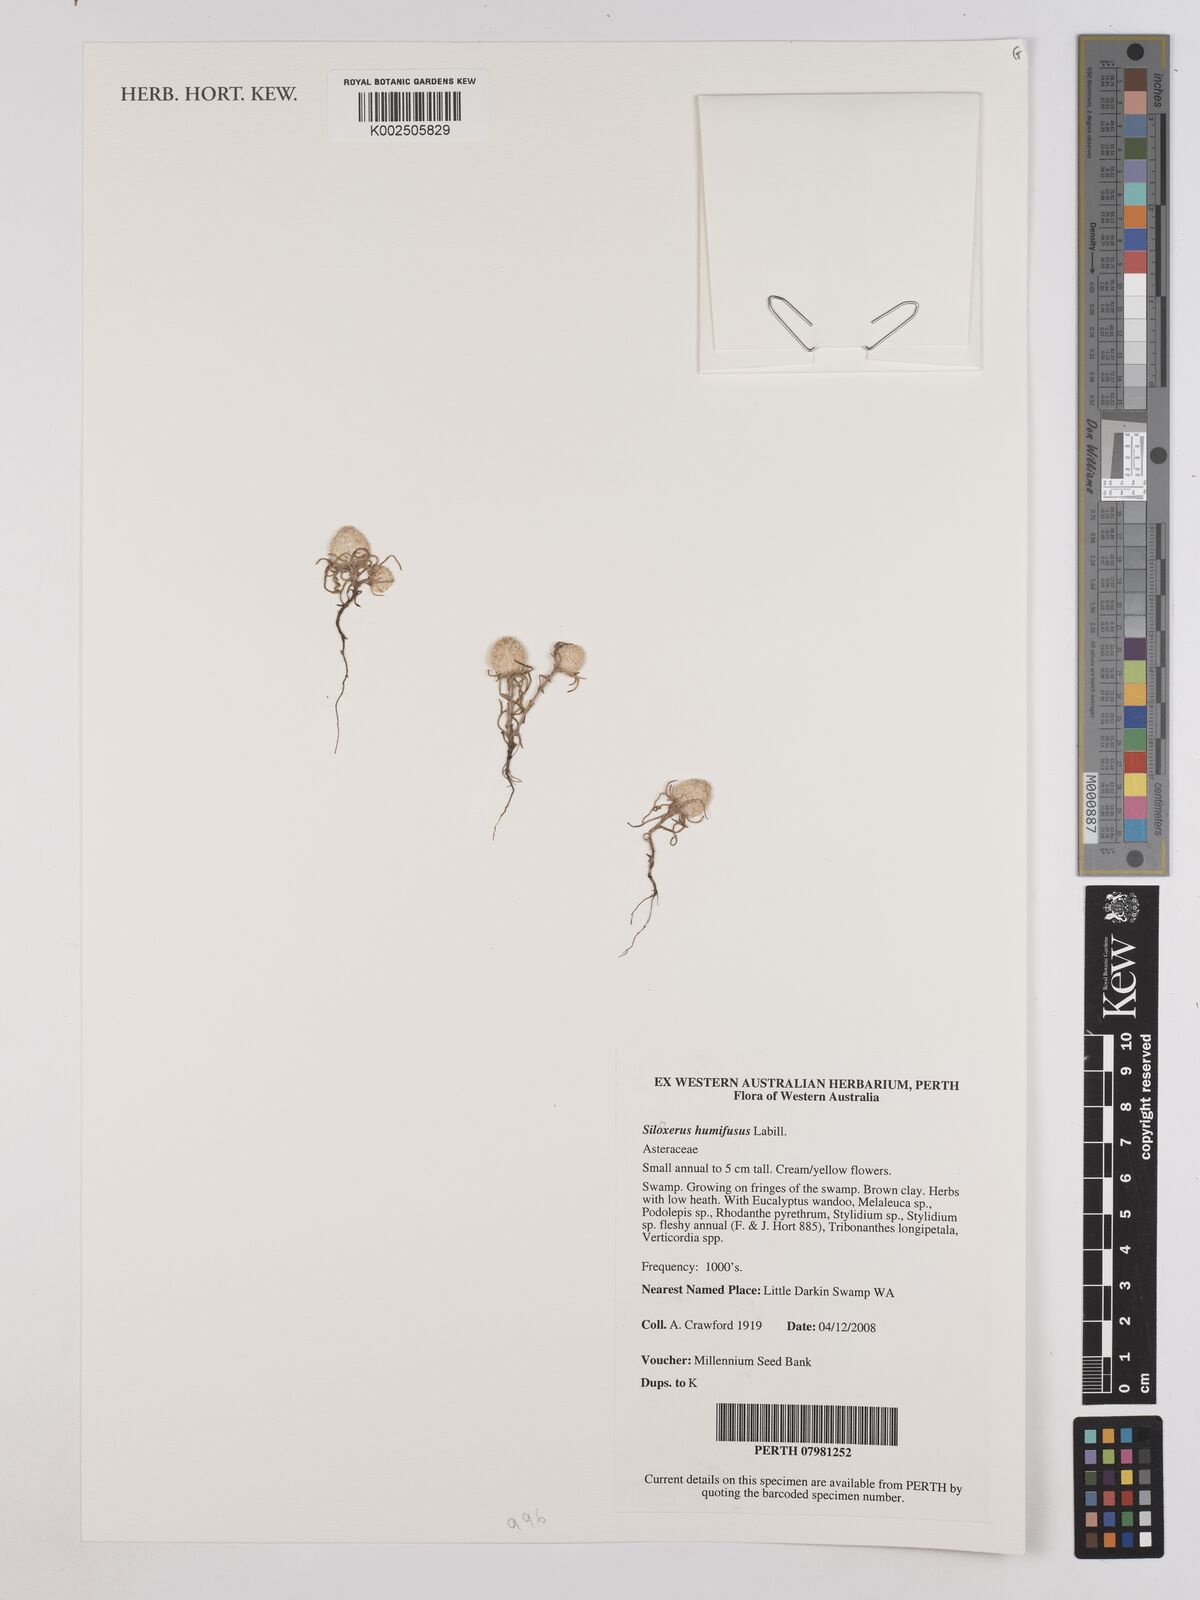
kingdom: Plantae
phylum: Tracheophyta
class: Magnoliopsida
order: Asterales
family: Asteraceae
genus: Siloxerus
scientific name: Siloxerus humifusus
